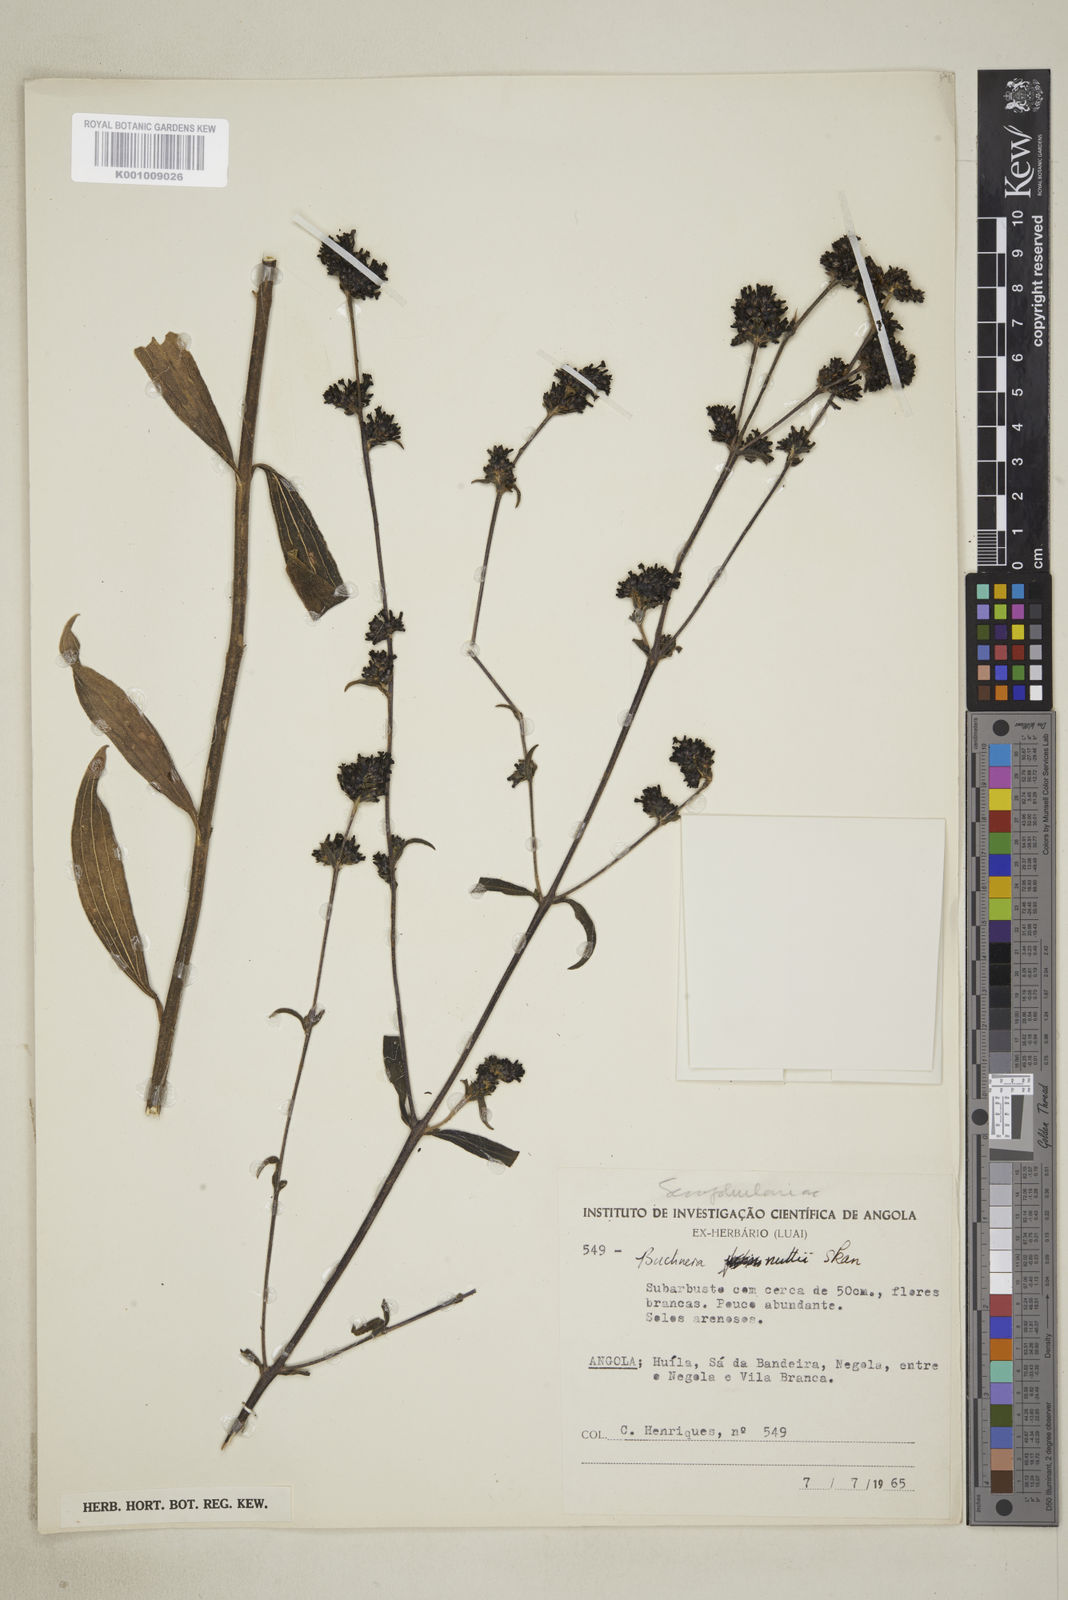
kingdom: Plantae
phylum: Tracheophyta
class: Magnoliopsida
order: Lamiales
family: Orobanchaceae
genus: Buchnera
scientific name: Buchnera nuttii
